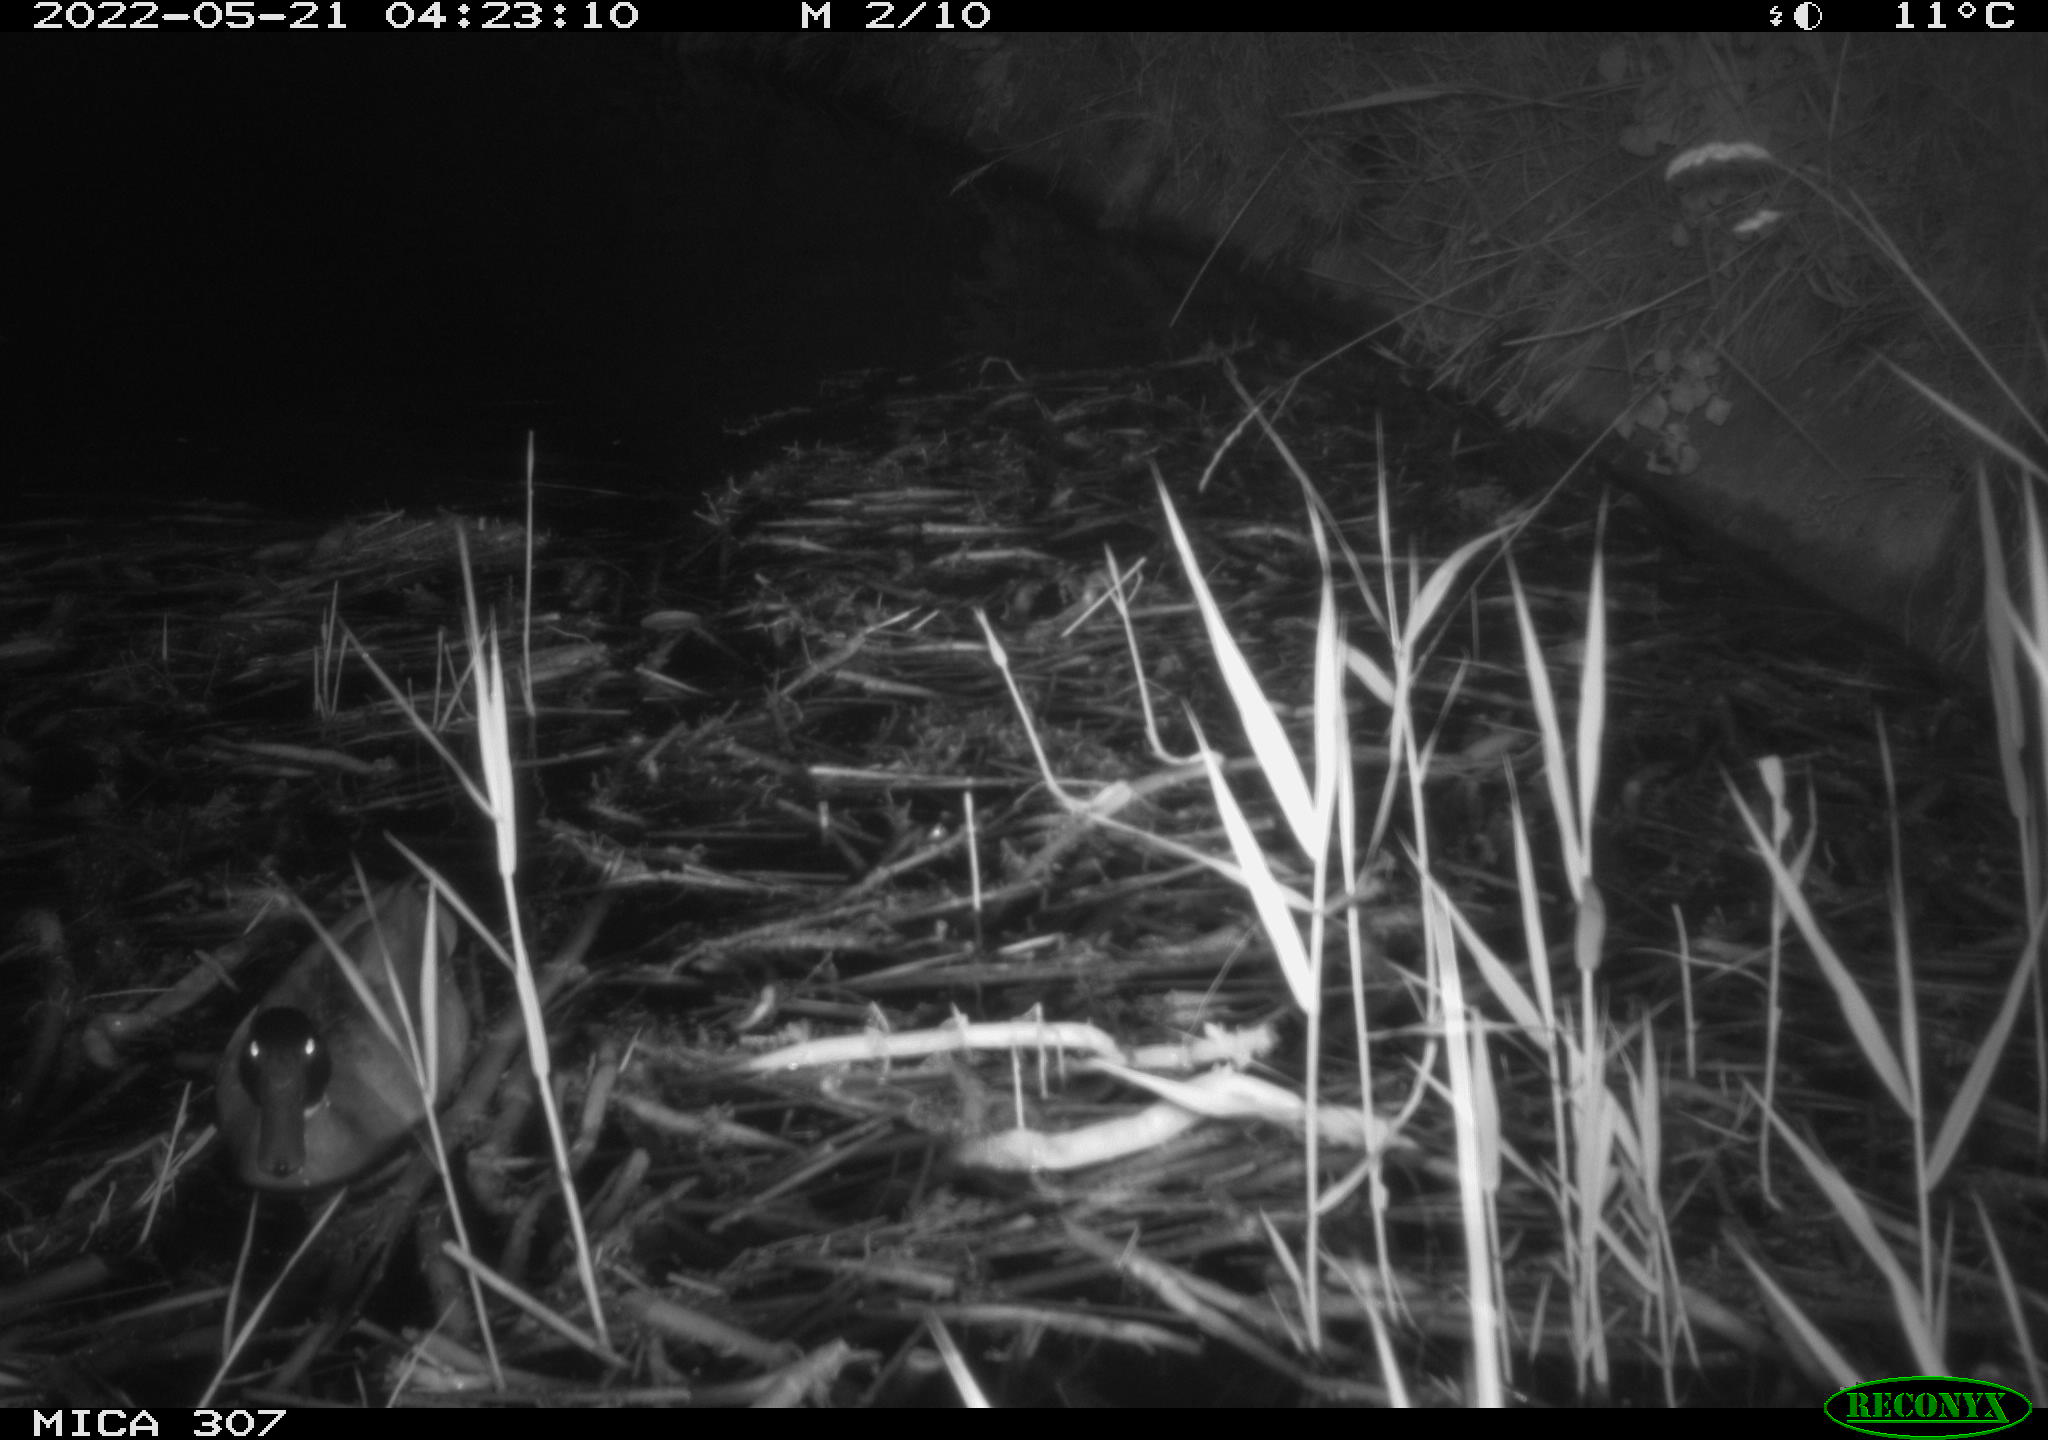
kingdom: Animalia
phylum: Chordata
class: Aves
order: Anseriformes
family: Anatidae
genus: Anas
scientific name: Anas platyrhynchos
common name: Mallard
